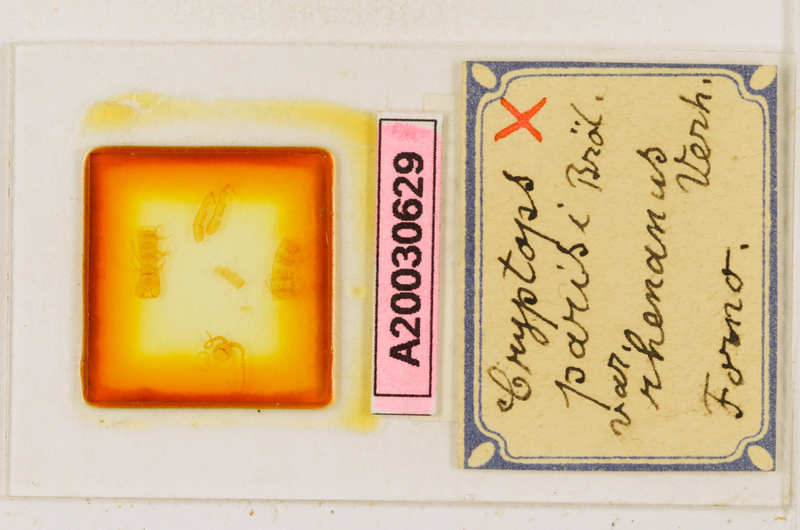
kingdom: Animalia
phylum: Arthropoda
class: Chilopoda
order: Scolopendromorpha
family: Cryptopidae
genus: Cryptops
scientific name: Cryptops parisi
